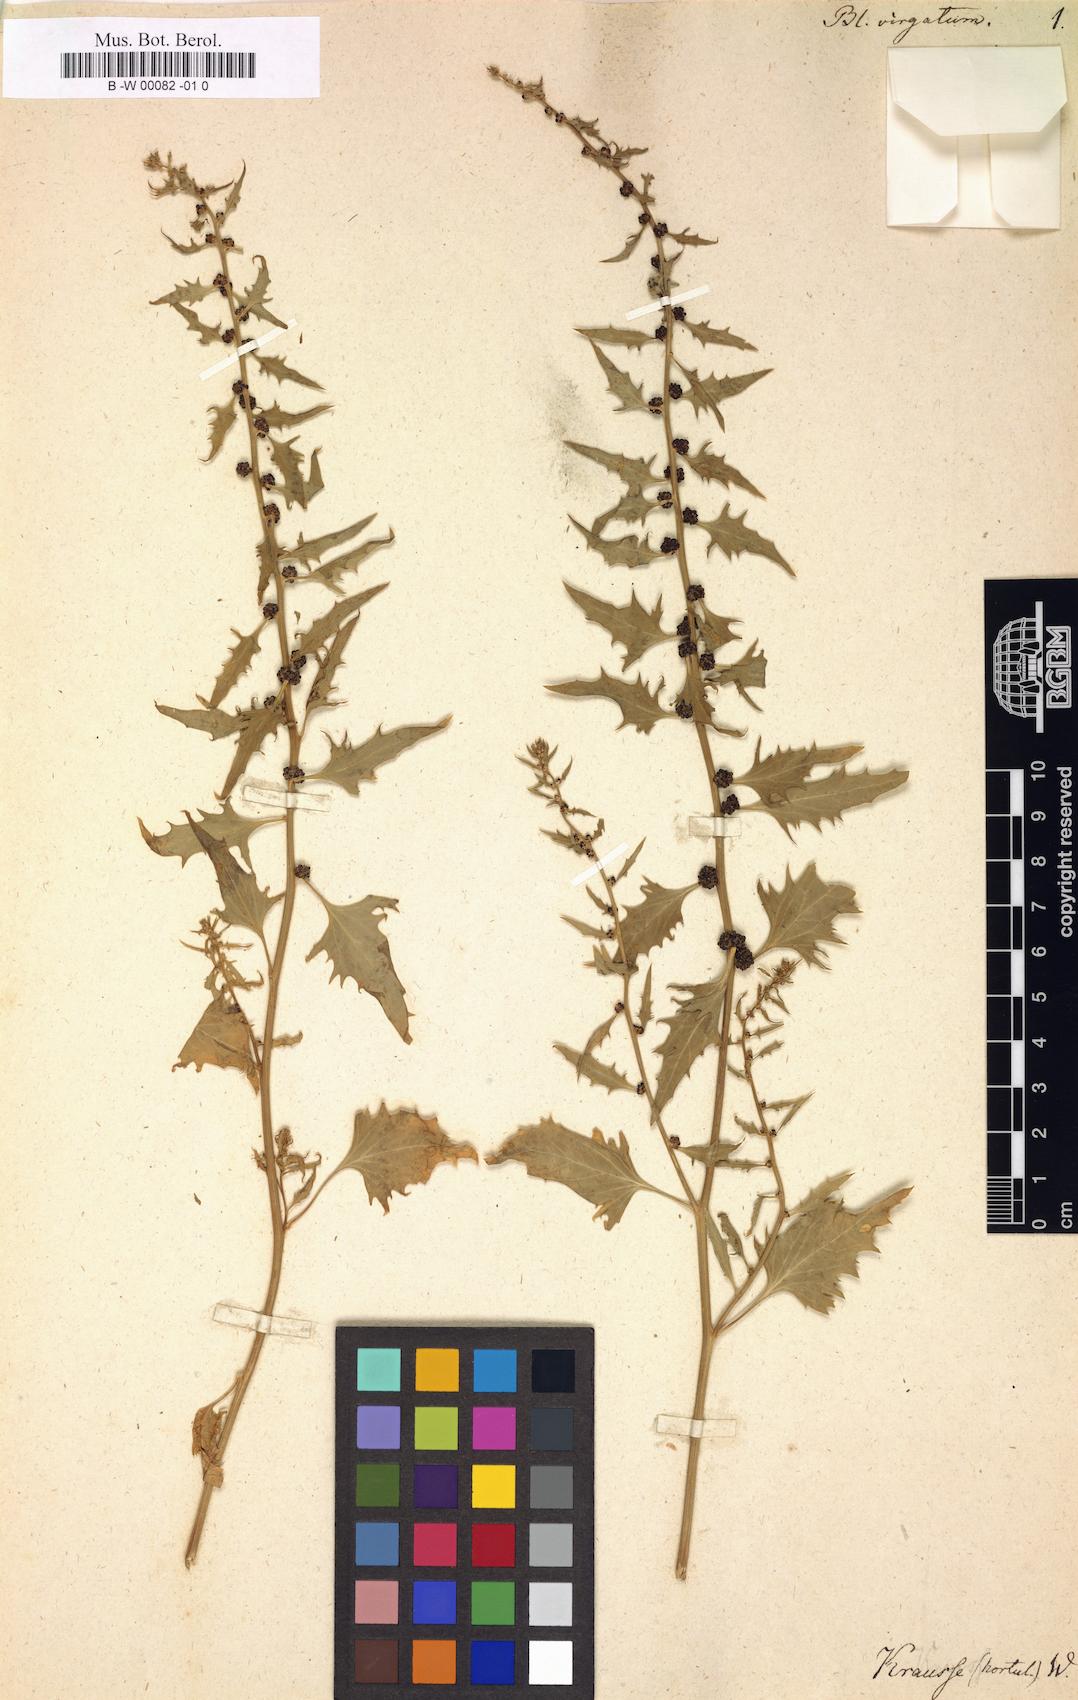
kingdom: Plantae
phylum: Tracheophyta
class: Magnoliopsida
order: Caryophyllales
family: Amaranthaceae
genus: Blitum
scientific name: Blitum virgatum
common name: Strawberry goosefoot
